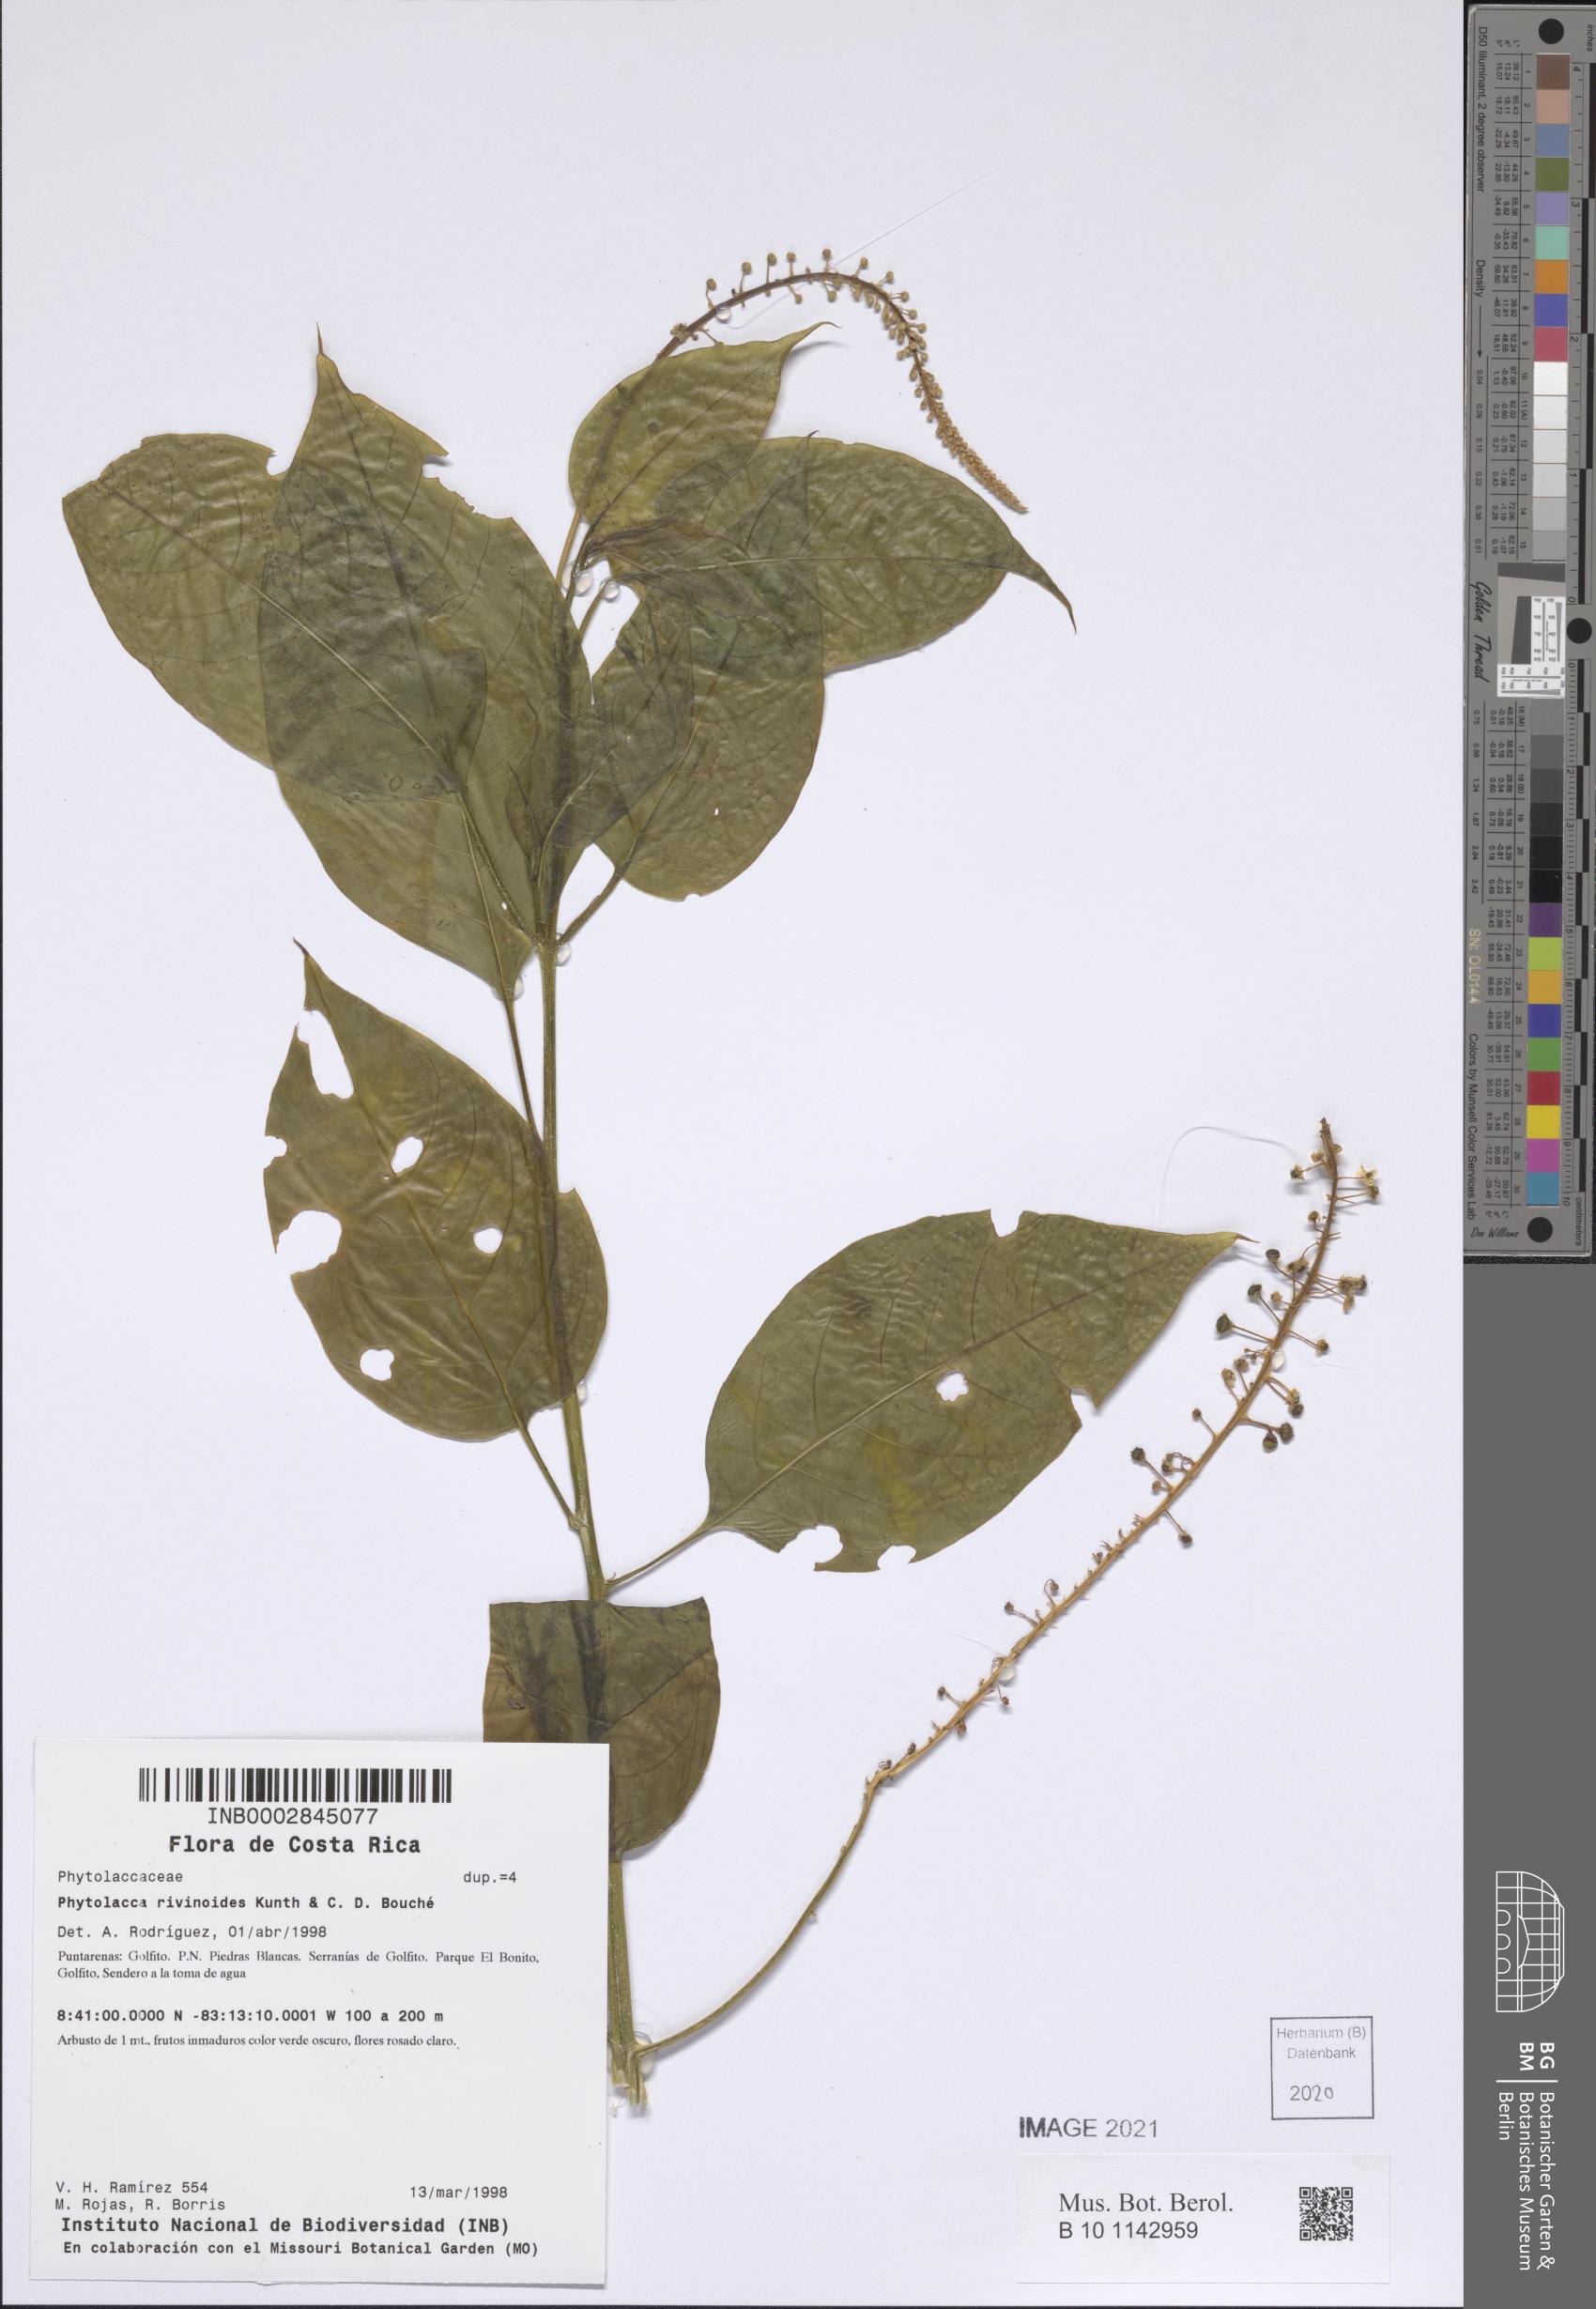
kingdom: Plantae
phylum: Tracheophyta
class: Magnoliopsida
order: Caryophyllales
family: Phytolaccaceae
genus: Phytolacca
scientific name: Phytolacca rivinoides
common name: Venezuelan pokeweed
